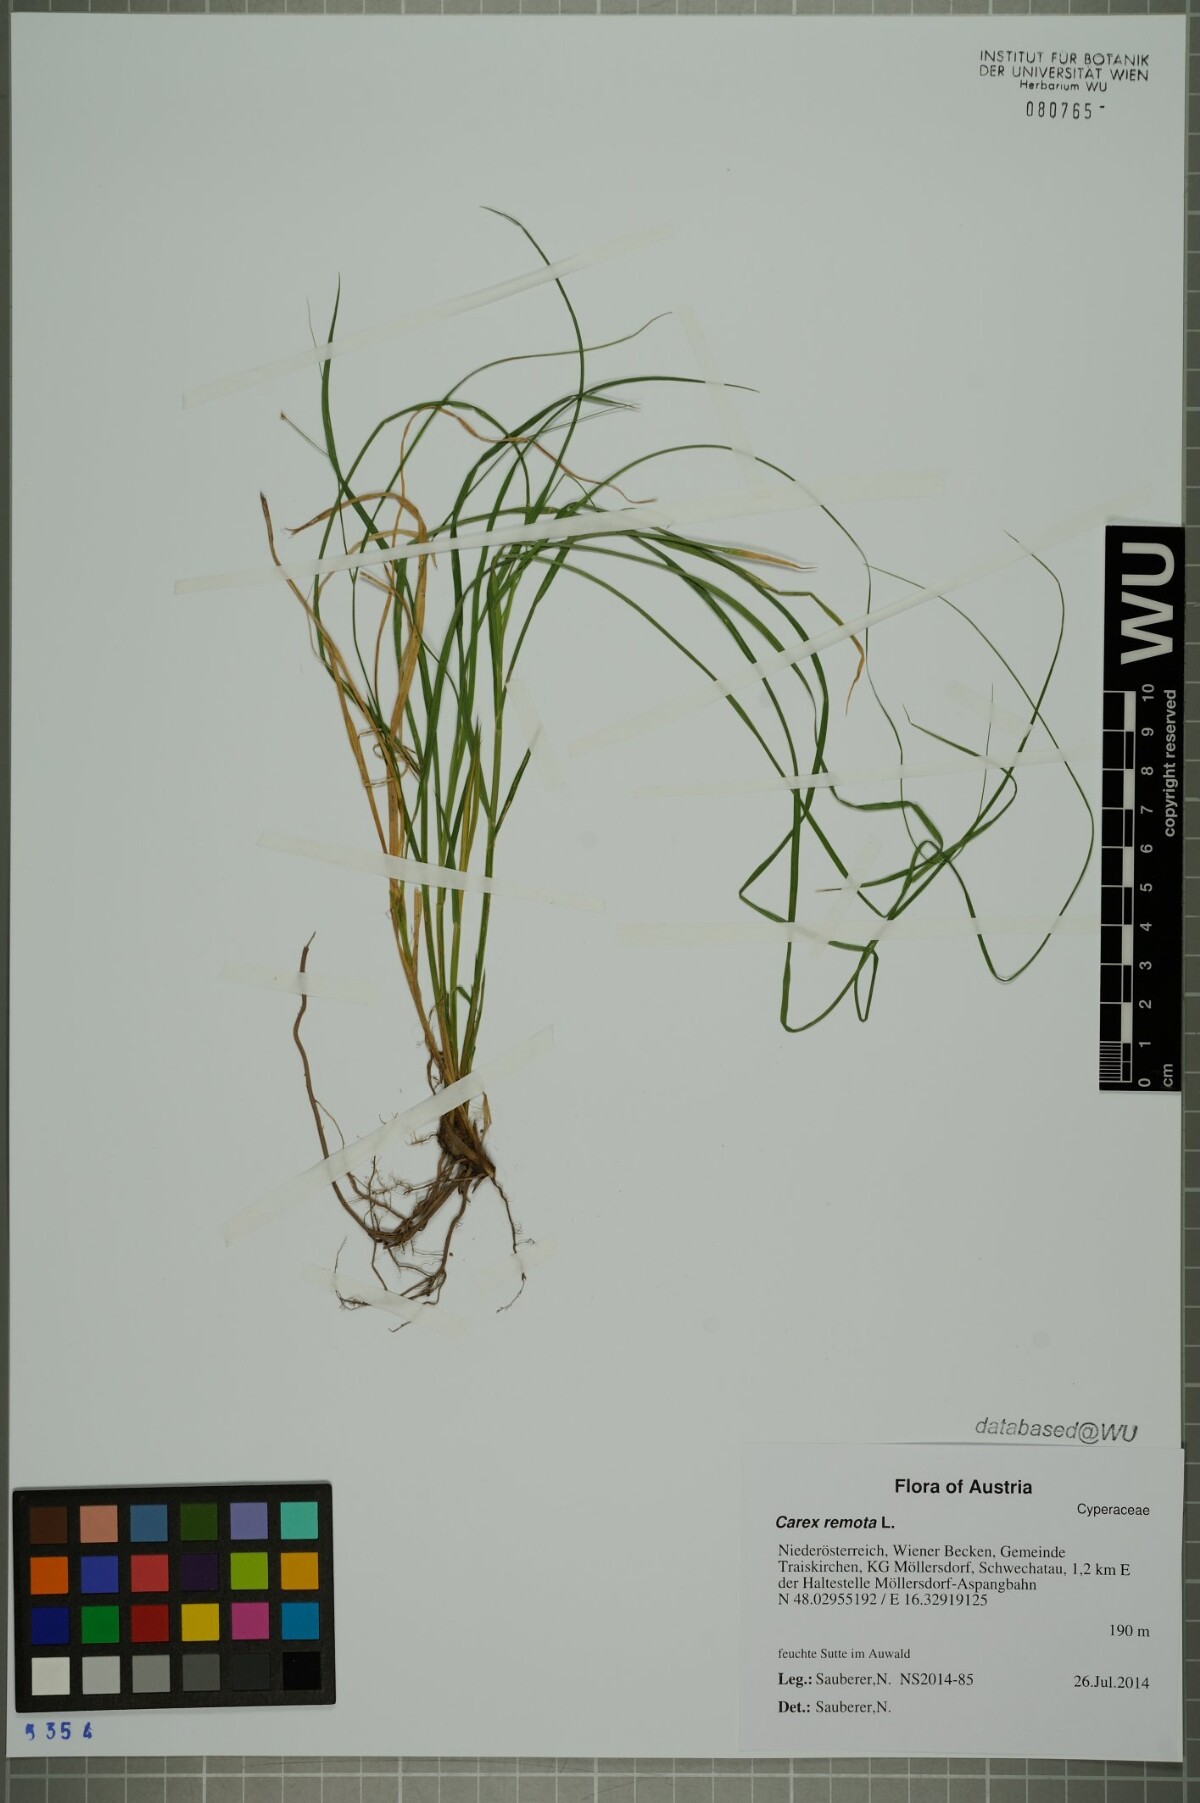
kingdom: Plantae
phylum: Tracheophyta
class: Liliopsida
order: Poales
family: Cyperaceae
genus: Carex
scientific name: Carex remota
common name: Remote sedge
